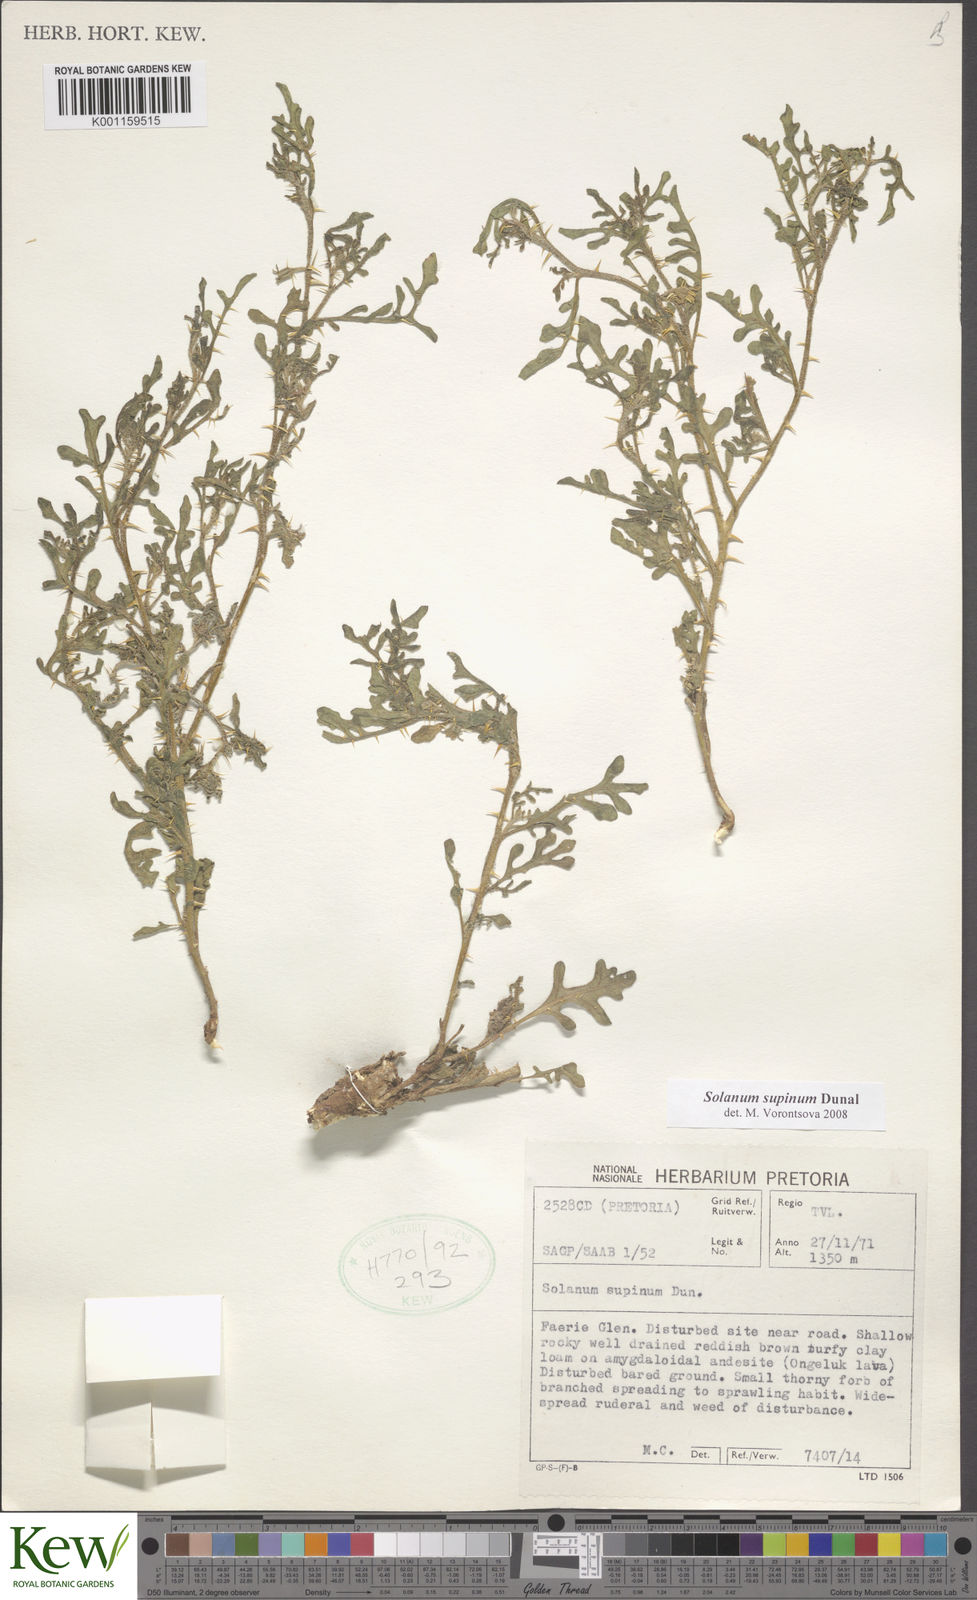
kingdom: Plantae
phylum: Tracheophyta
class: Magnoliopsida
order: Solanales
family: Solanaceae
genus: Solanum
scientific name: Solanum supinum
